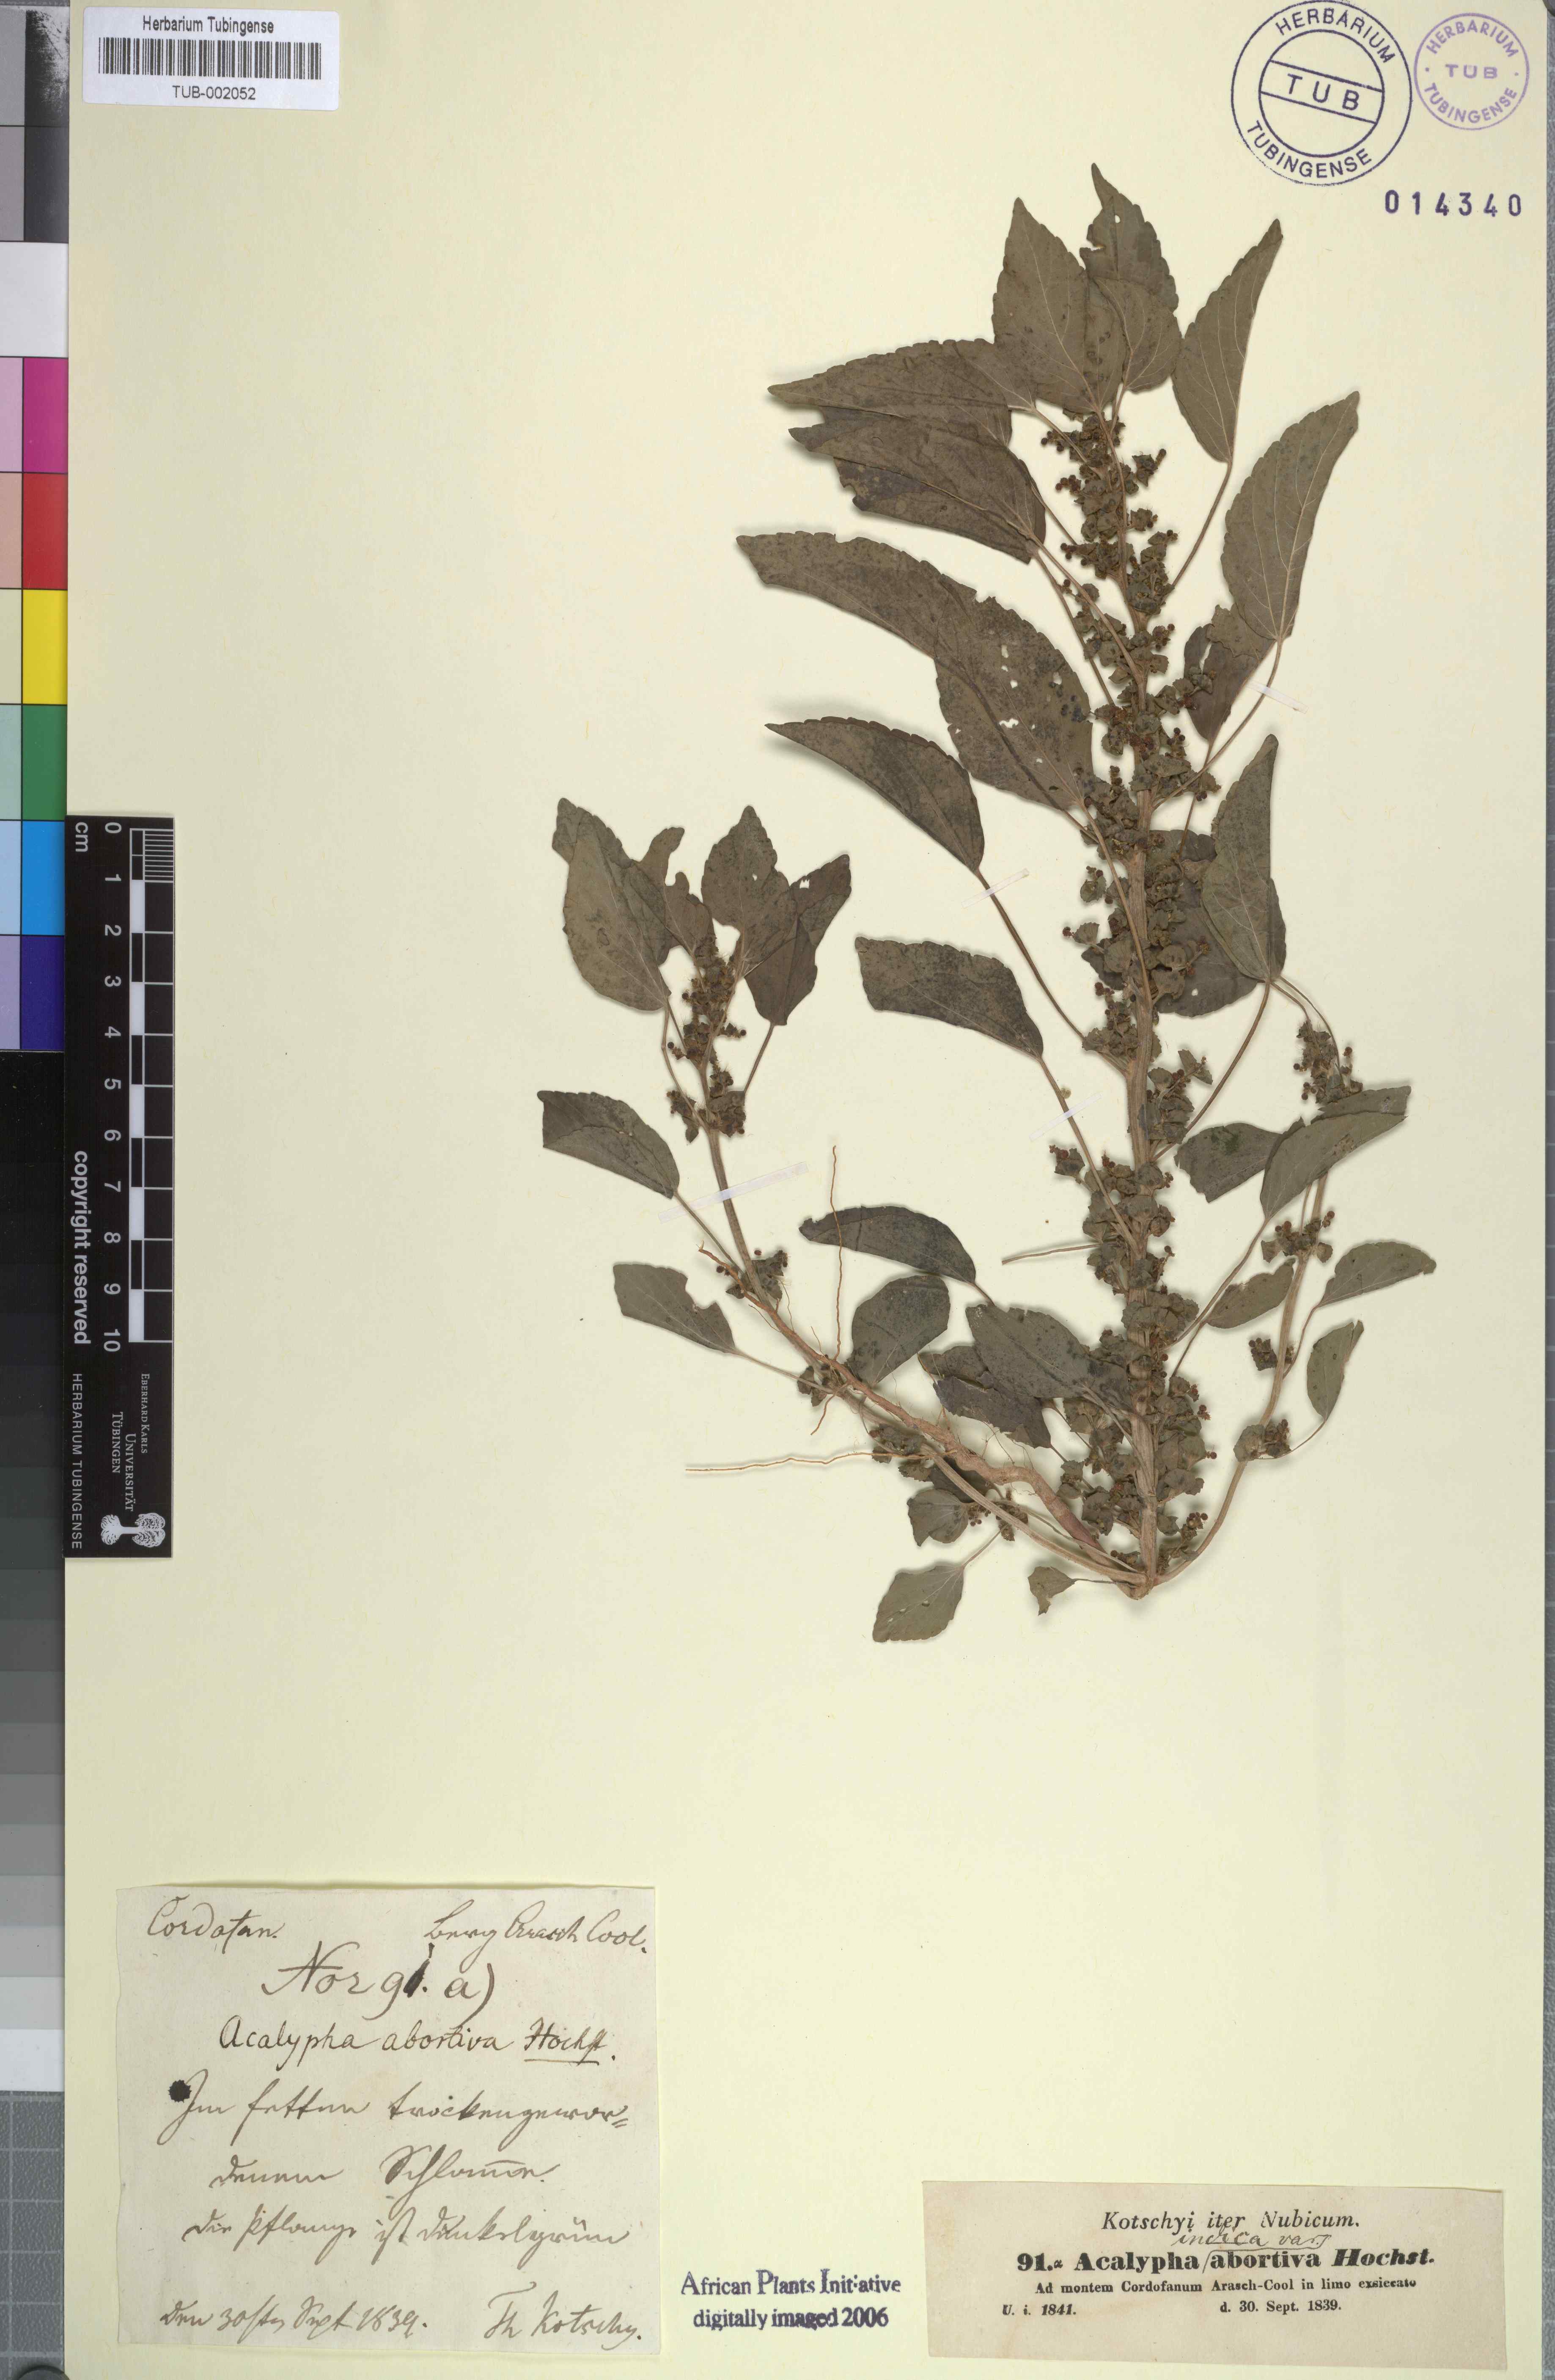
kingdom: Plantae
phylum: Tracheophyta
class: Magnoliopsida
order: Malpighiales
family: Euphorbiaceae
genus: Acalypha
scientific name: Acalypha crenata
